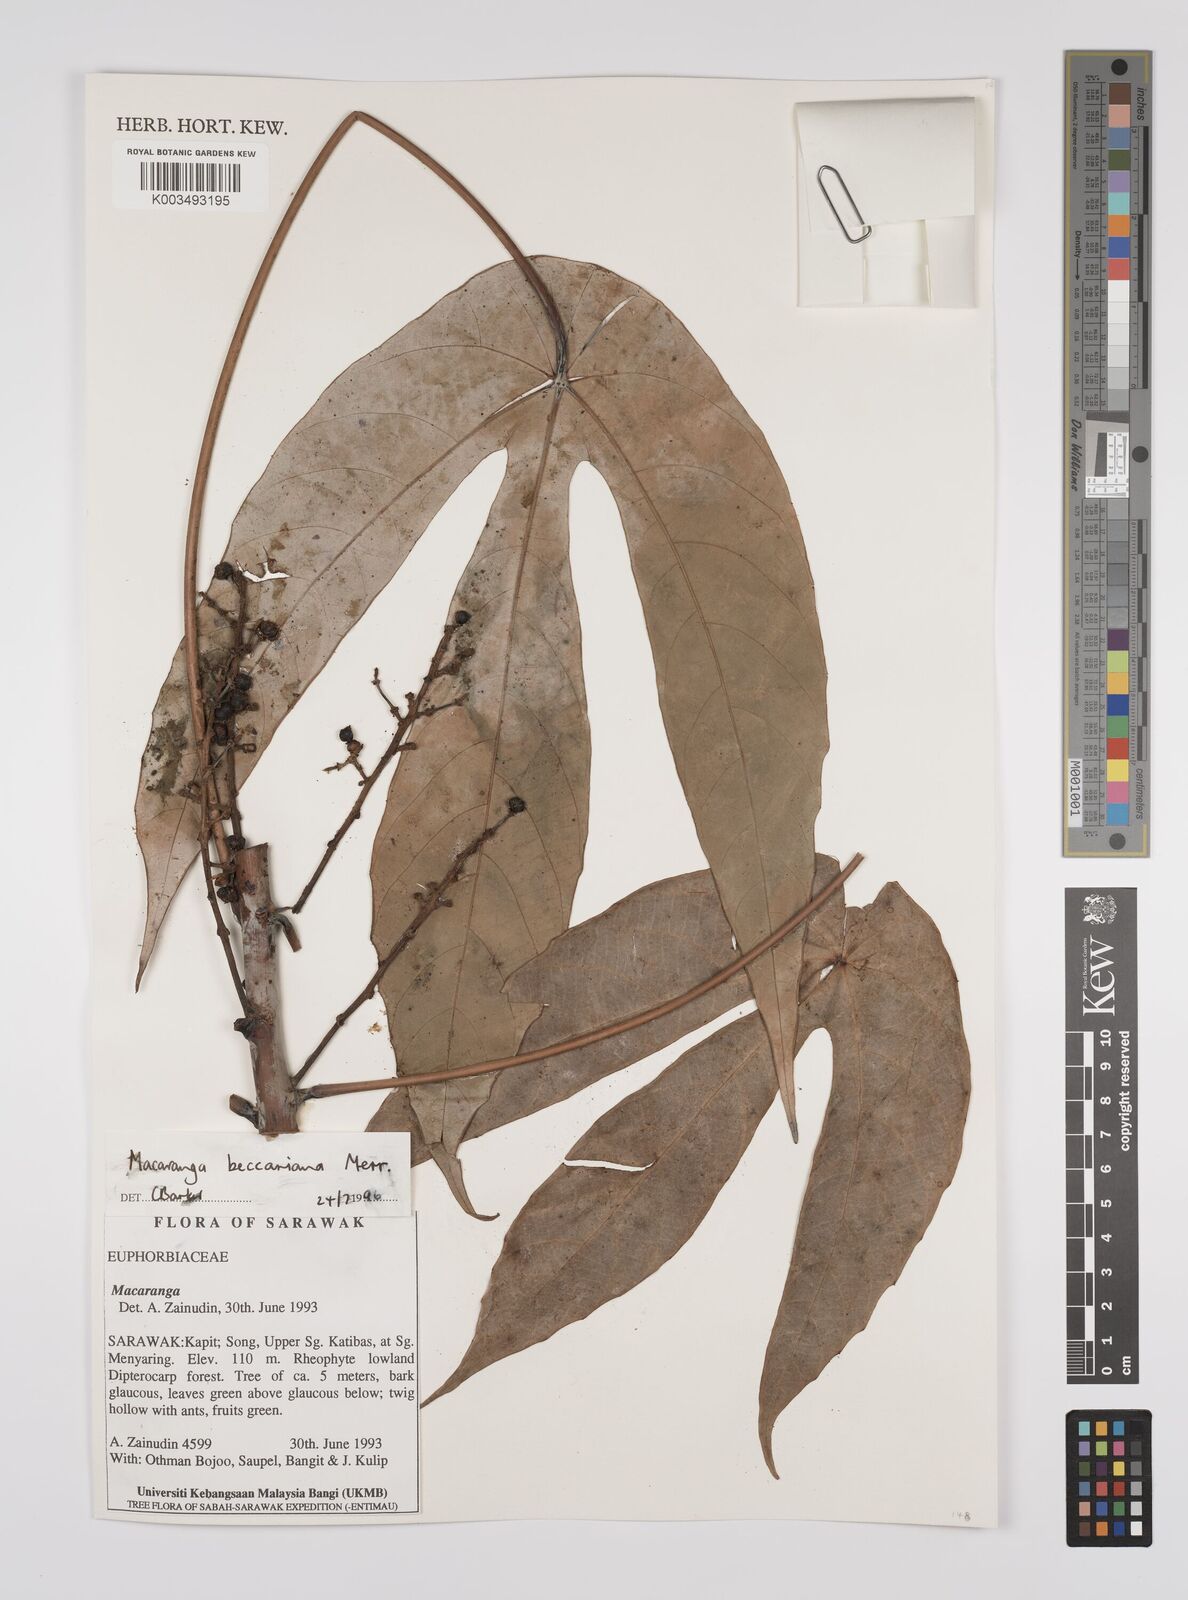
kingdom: Plantae
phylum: Tracheophyta
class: Magnoliopsida
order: Malpighiales
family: Euphorbiaceae
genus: Macaranga
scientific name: Macaranga beccariana
